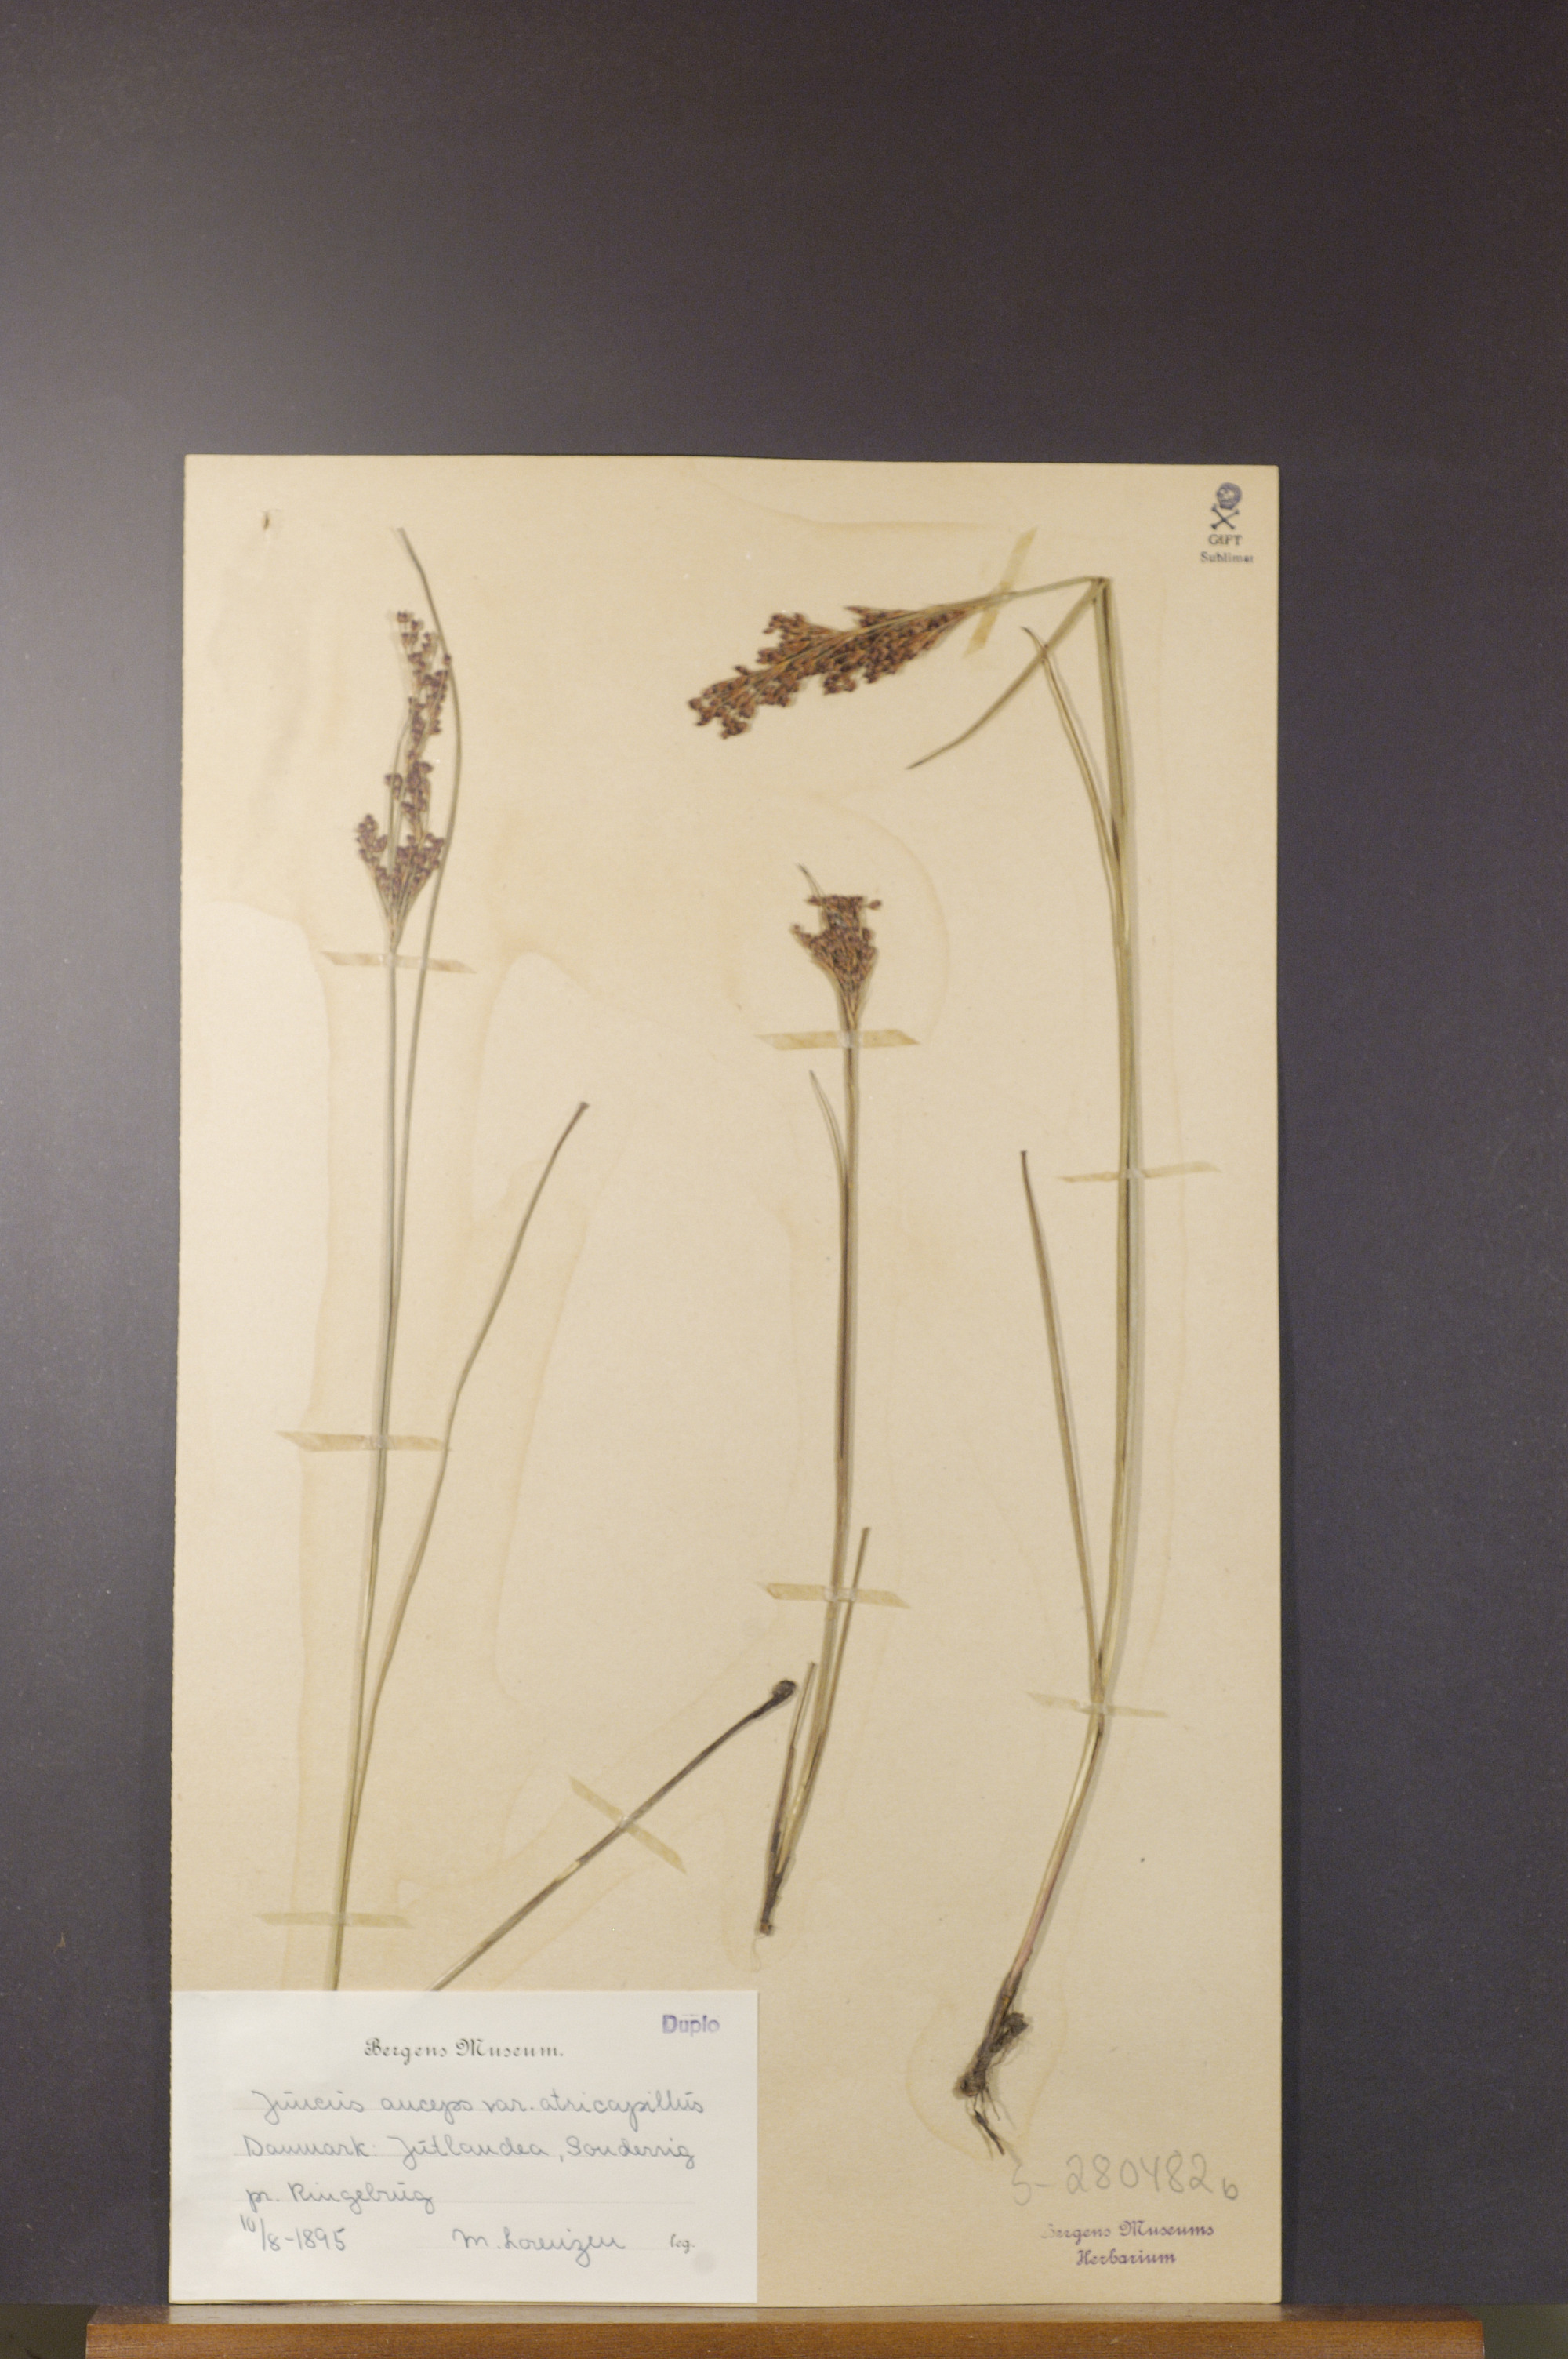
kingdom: Plantae
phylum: Tracheophyta
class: Liliopsida
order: Poales
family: Juncaceae
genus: Juncus
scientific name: Juncus anceps
